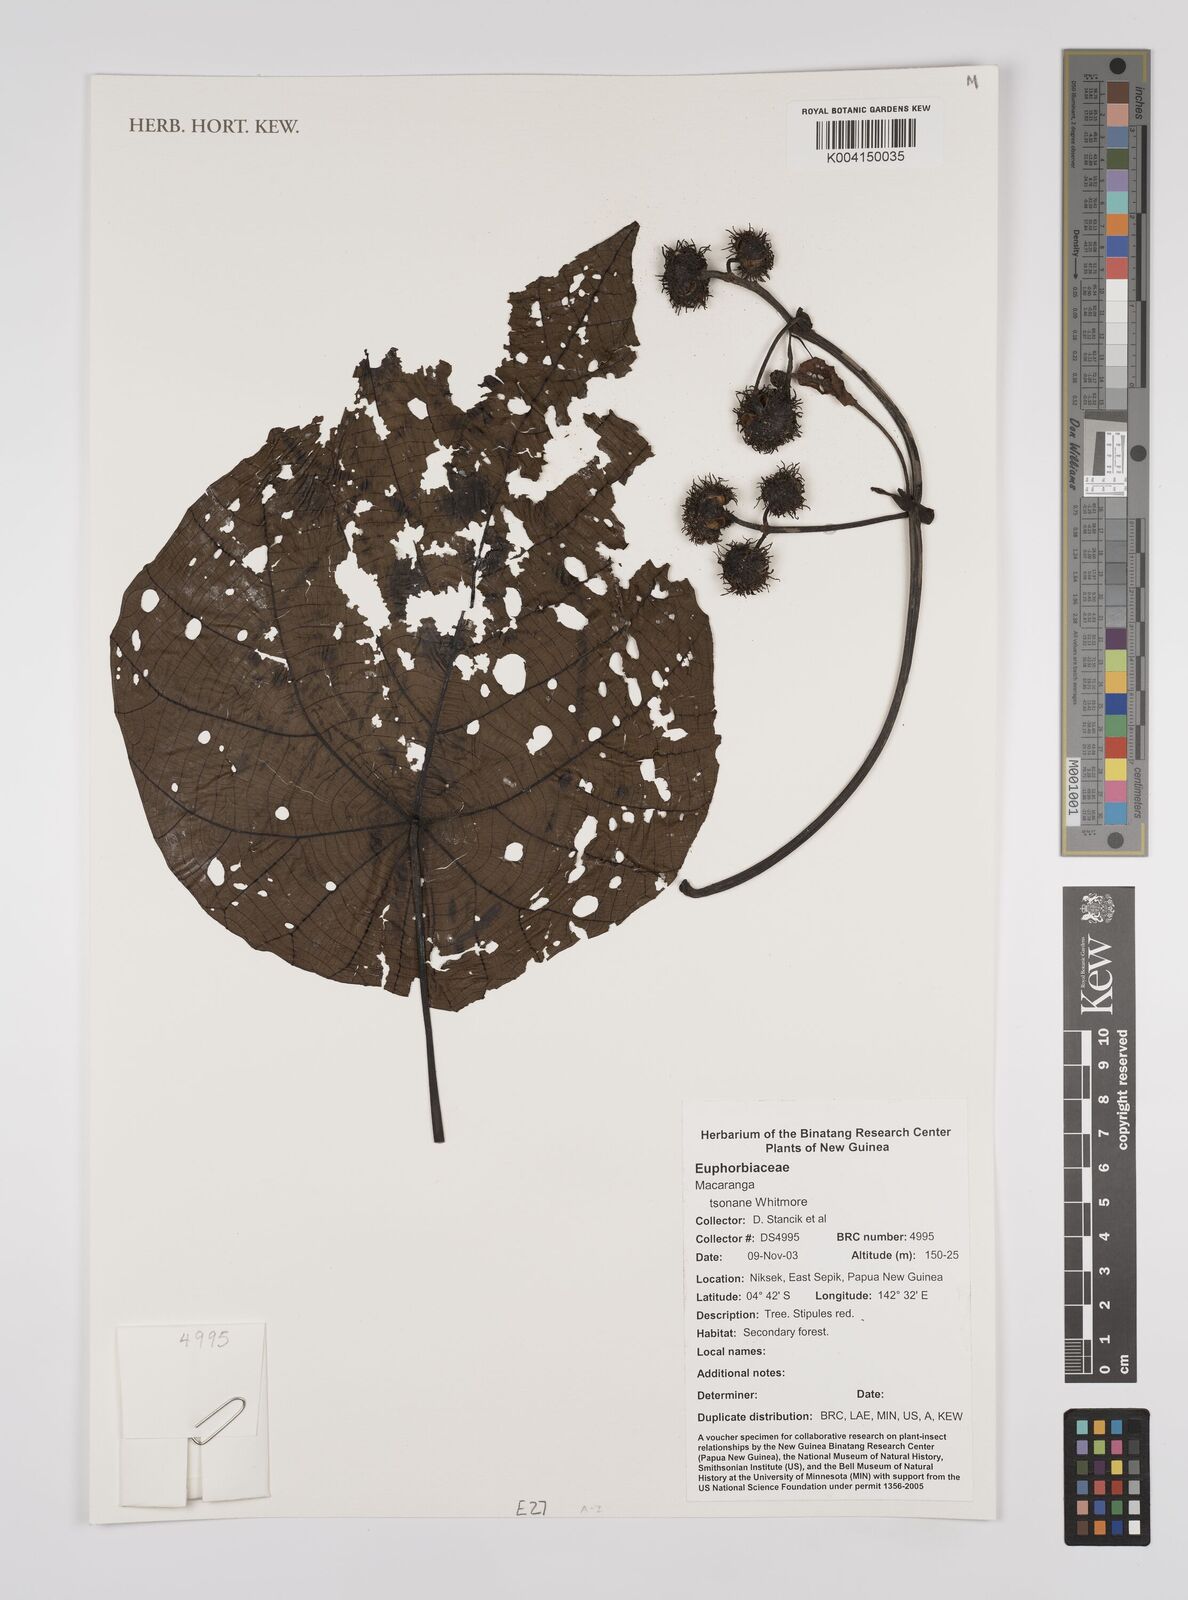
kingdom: Plantae
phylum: Tracheophyta
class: Magnoliopsida
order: Malpighiales
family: Euphorbiaceae
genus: Macaranga
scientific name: Macaranga tsonane
